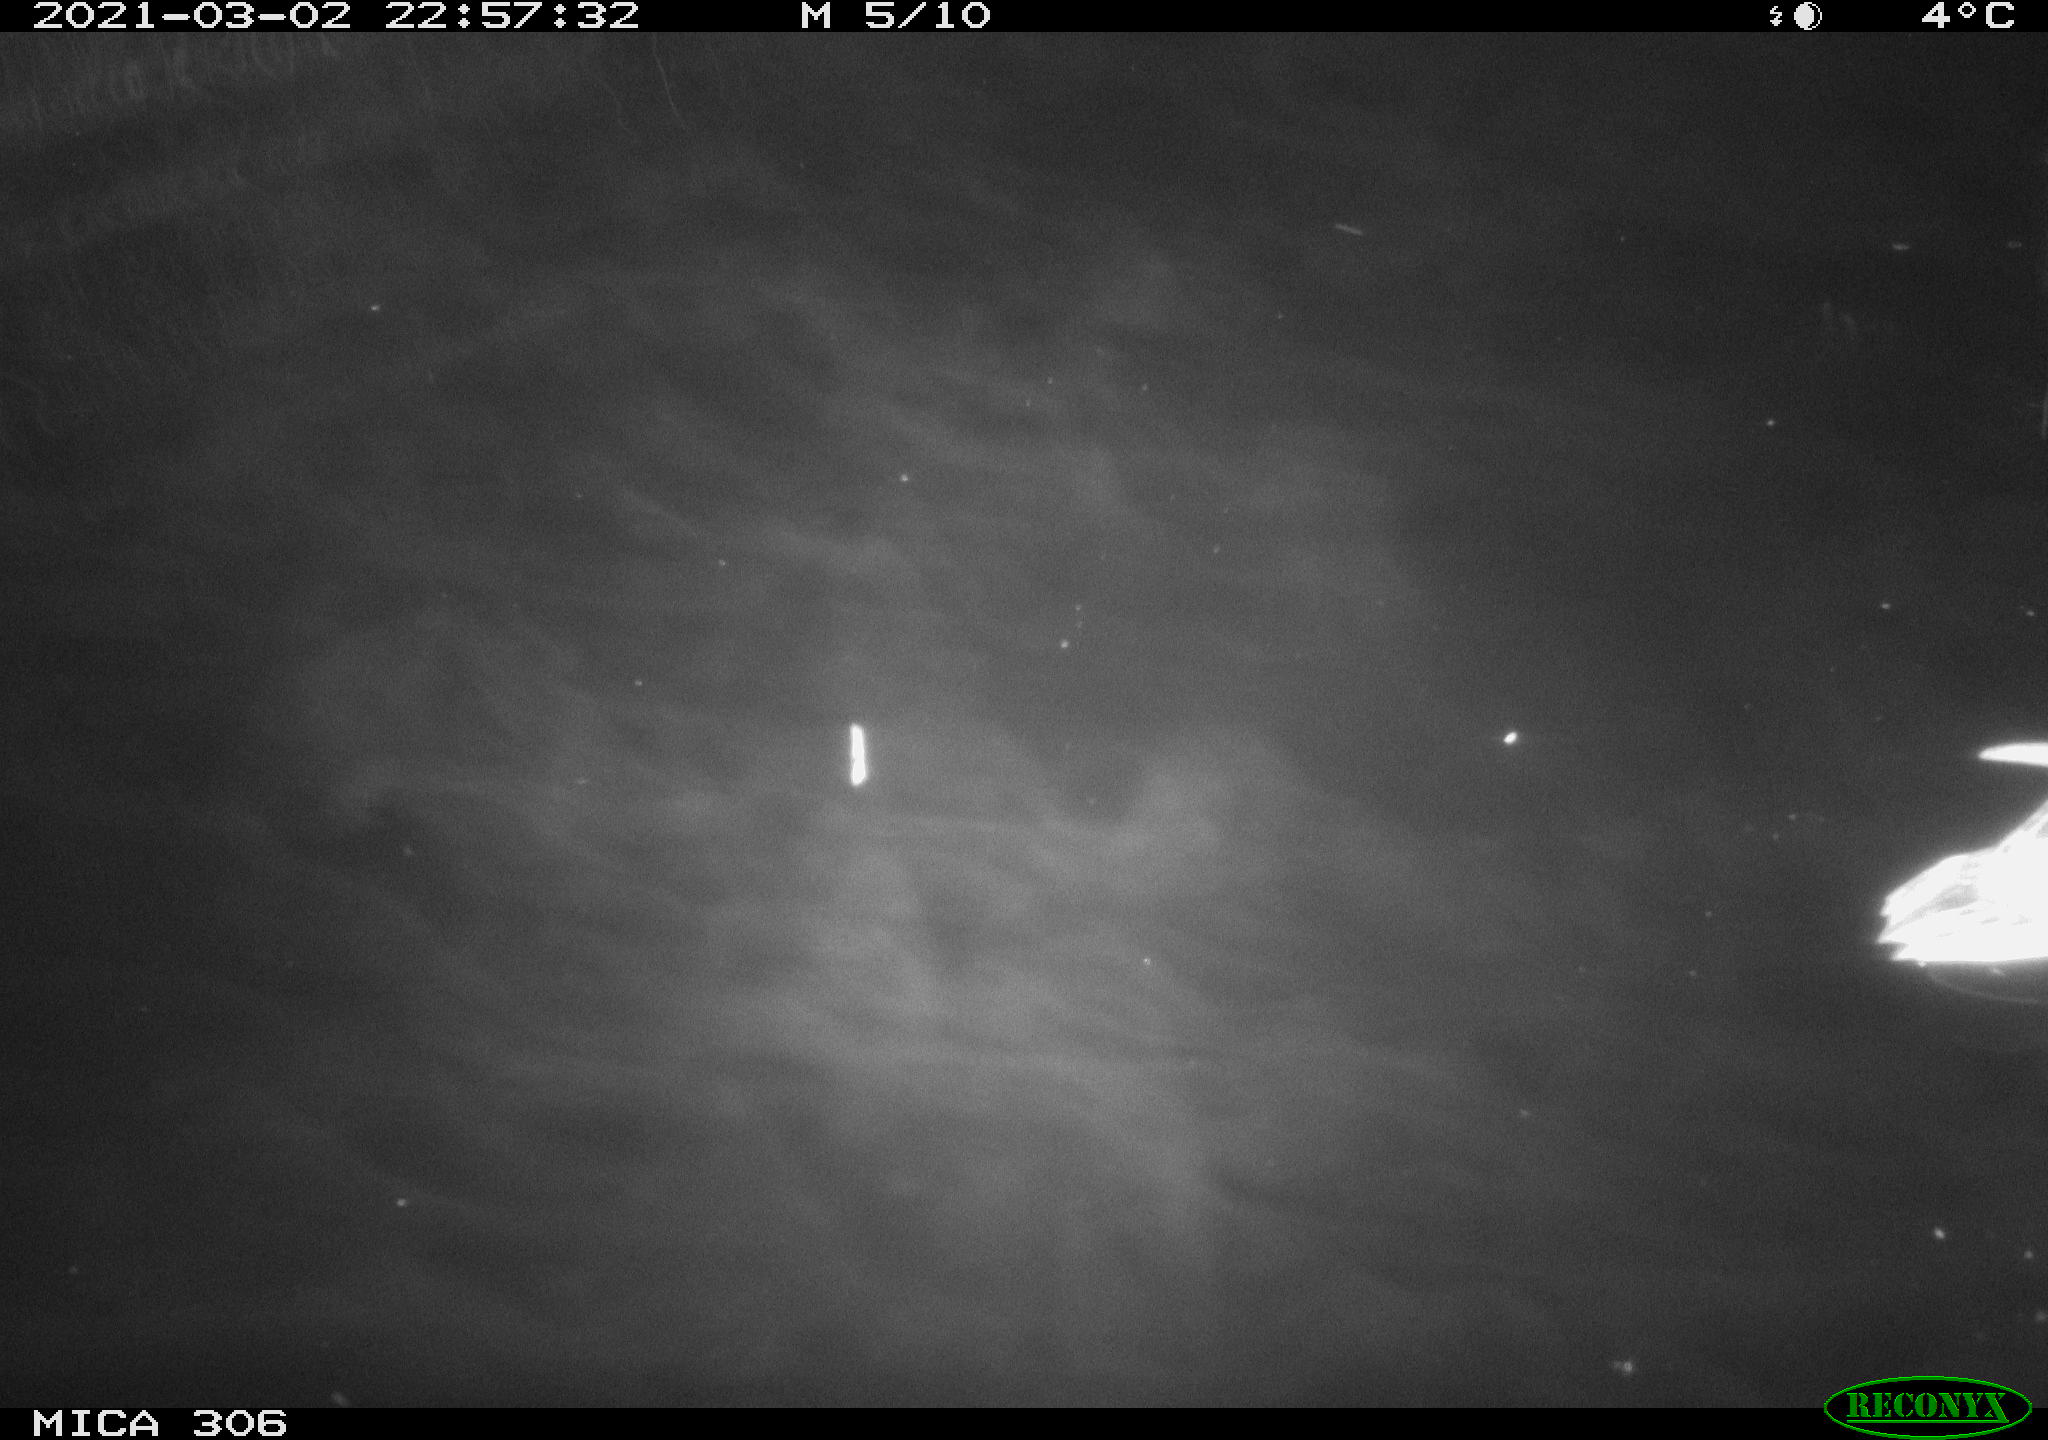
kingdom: Animalia
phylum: Chordata
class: Aves
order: Anseriformes
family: Anatidae
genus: Anas
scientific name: Anas platyrhynchos
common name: Mallard
